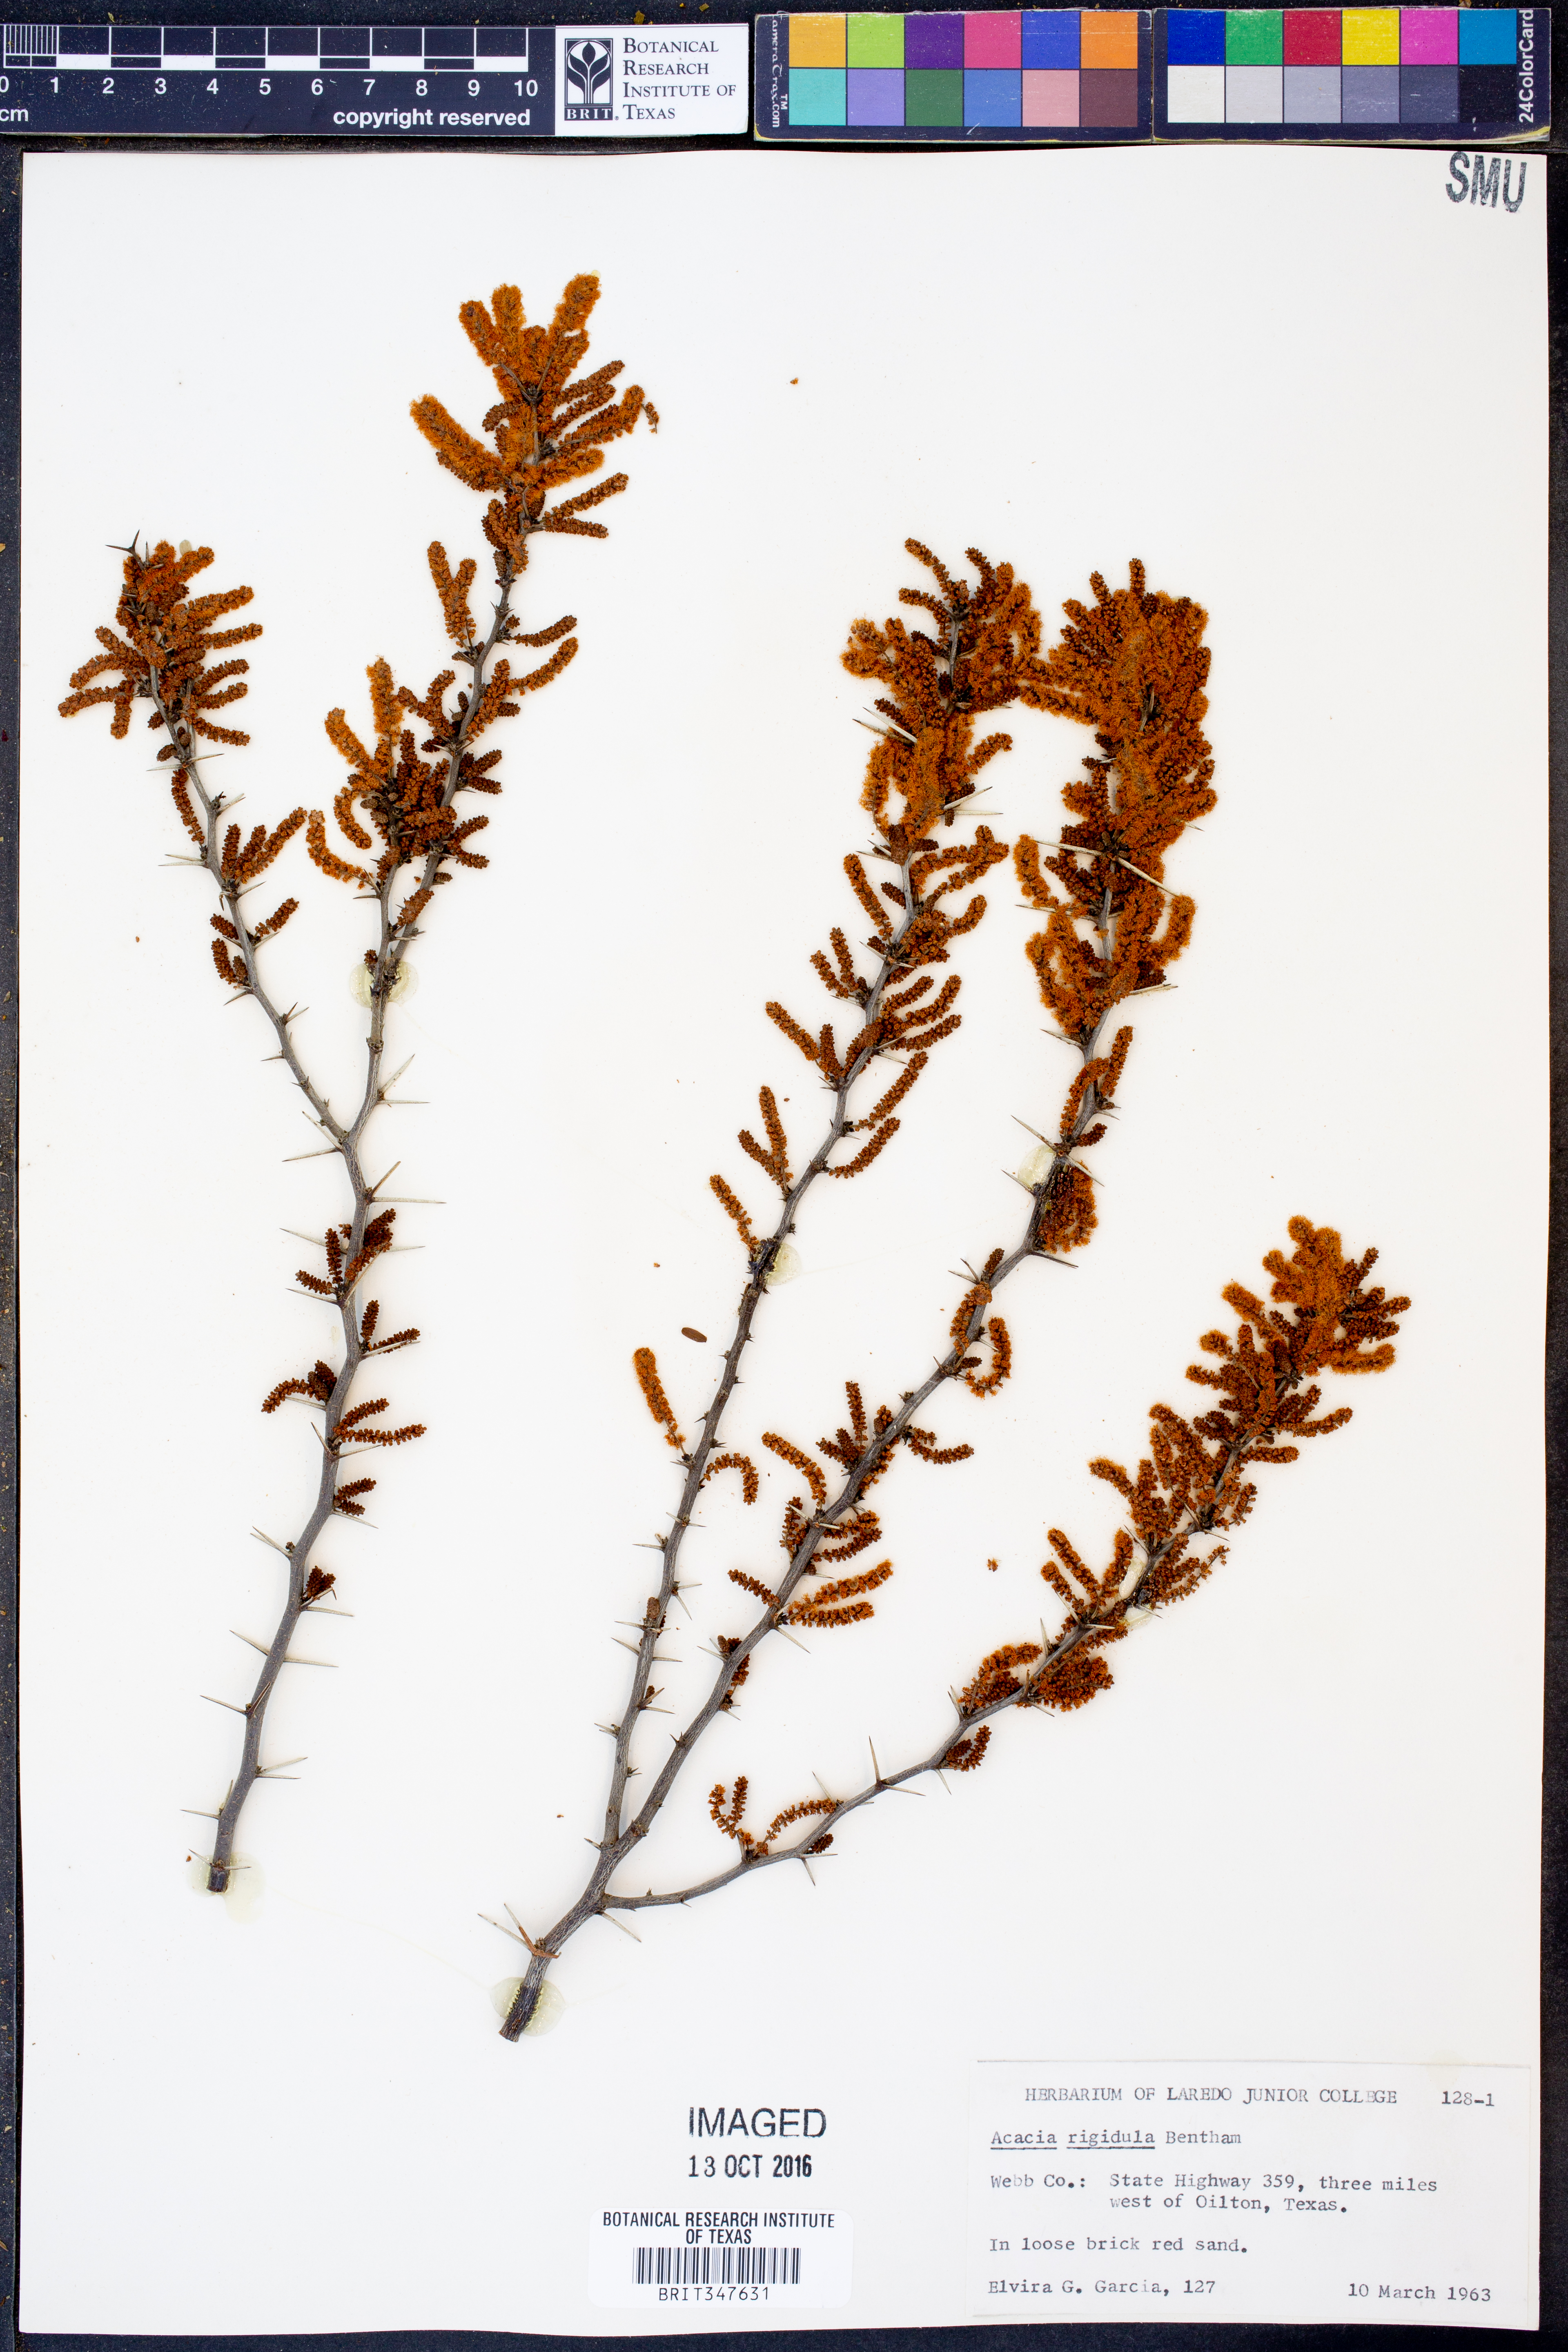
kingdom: Plantae
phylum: Tracheophyta
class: Magnoliopsida
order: Fabales
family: Fabaceae
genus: Vachellia
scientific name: Vachellia rigidula
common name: Blackbrush
